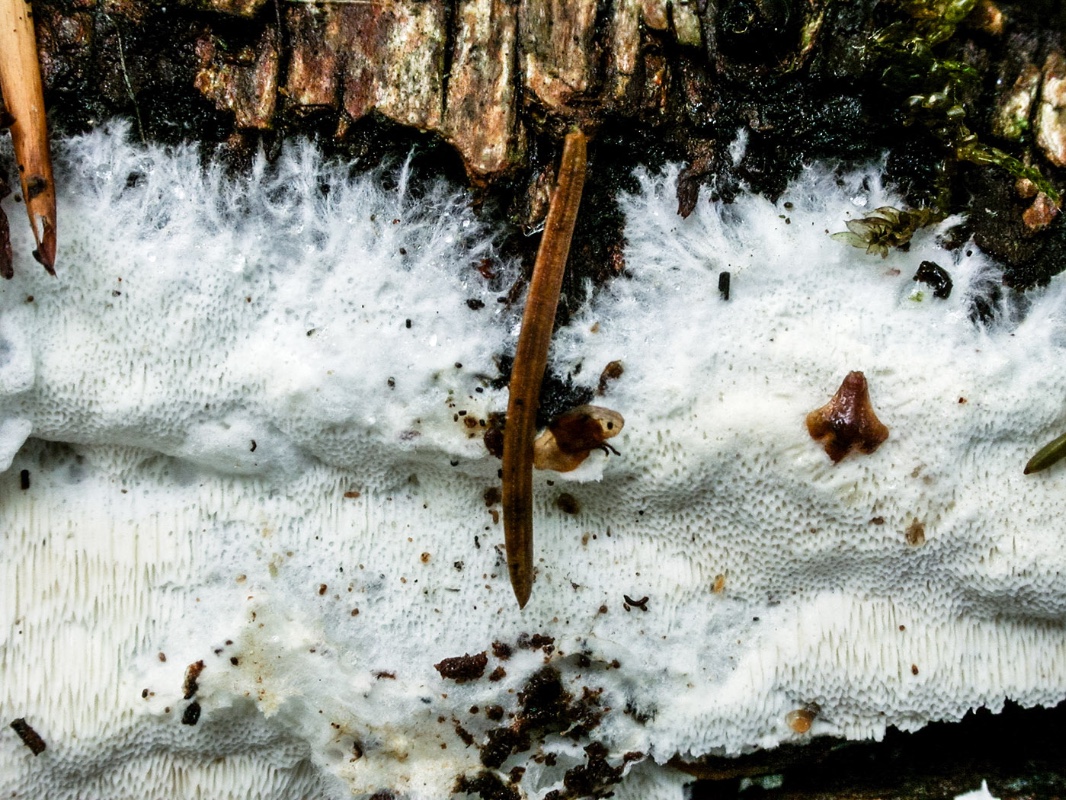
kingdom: Fungi
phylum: Basidiomycota
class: Agaricomycetes
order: Polyporales
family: Meruliaceae
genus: Ceriporiopsis
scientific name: Ceriporiopsis mucida
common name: trådporesvamp
